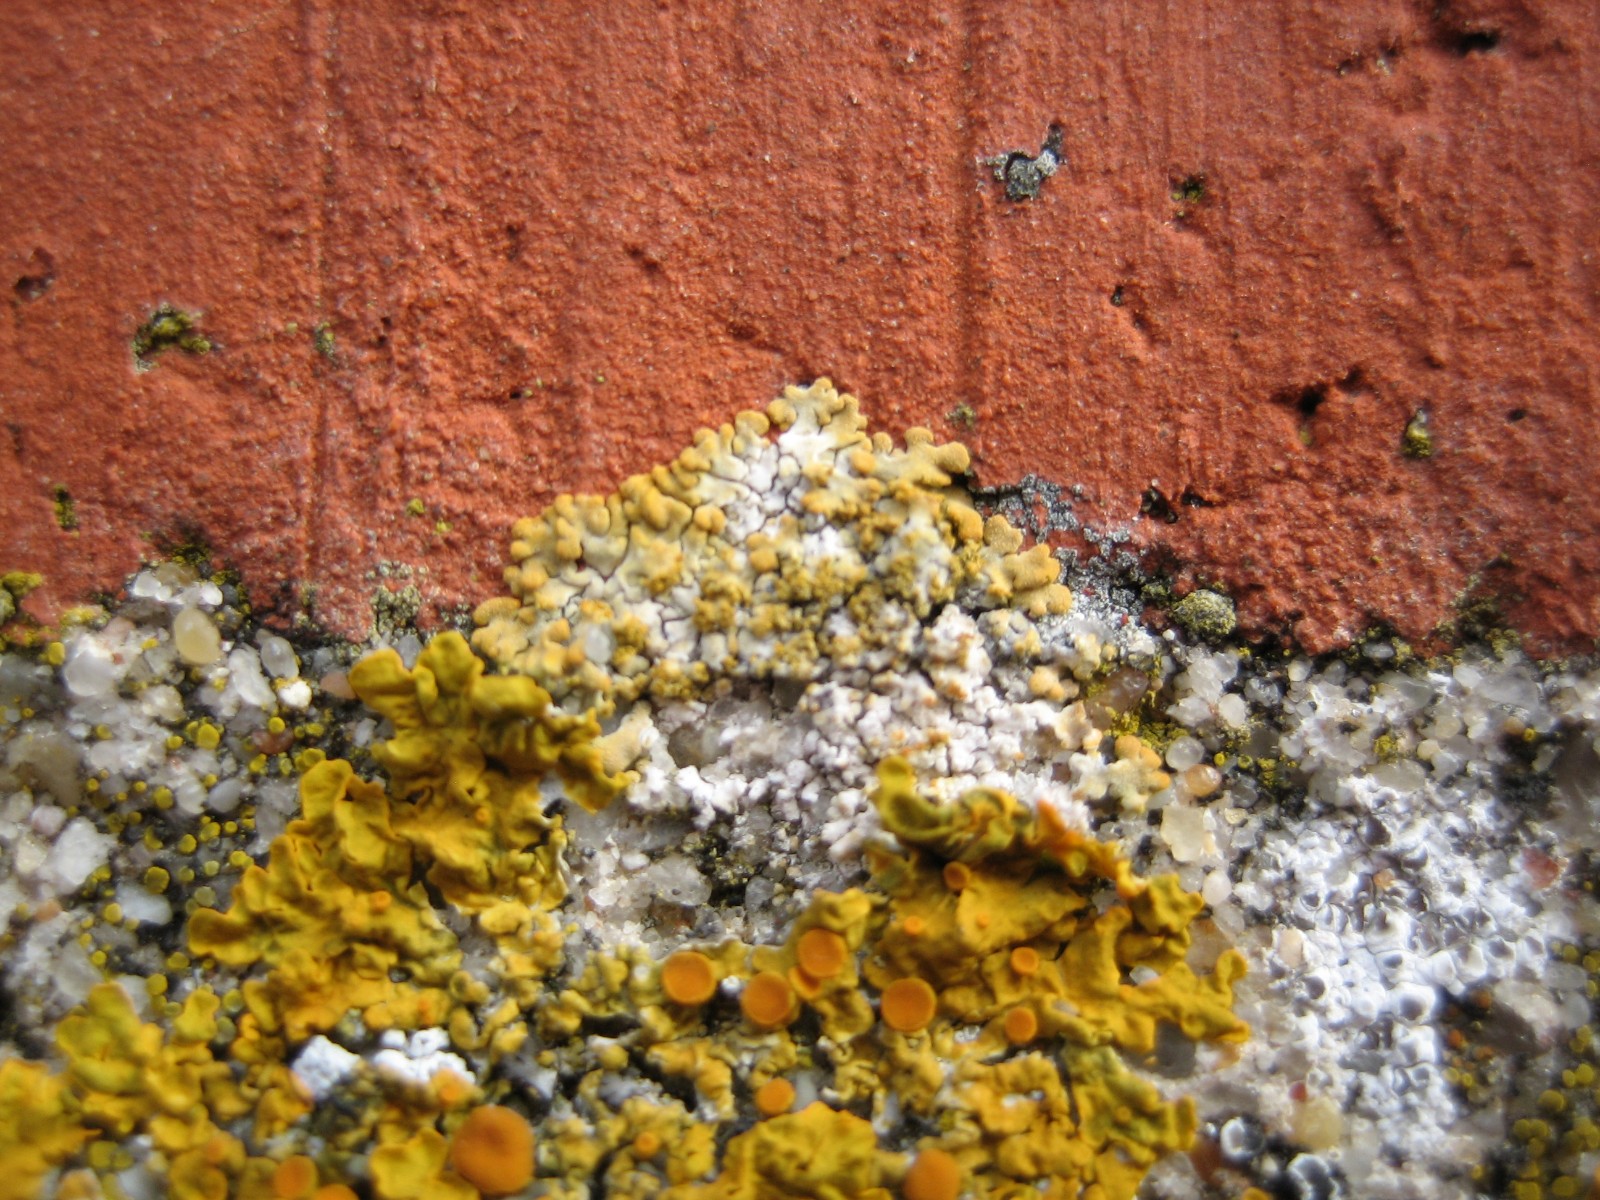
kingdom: Fungi
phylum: Ascomycota
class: Lecanoromycetes
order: Teloschistales
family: Teloschistaceae
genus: Calogaya
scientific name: Calogaya decipiens
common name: knudret orangelav
